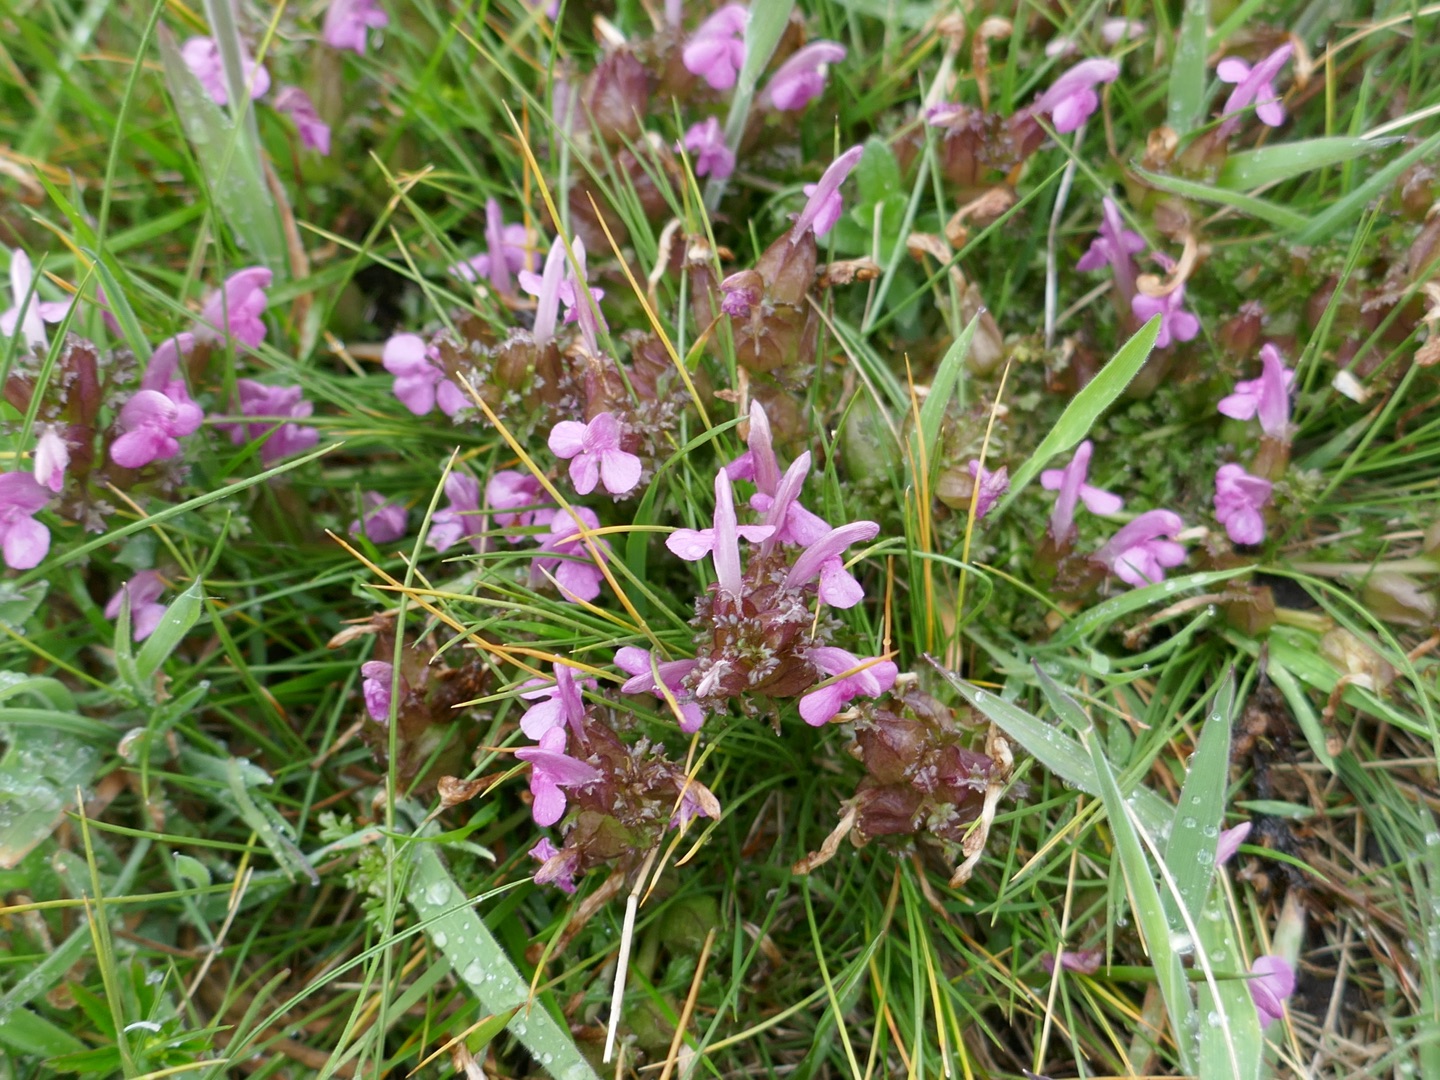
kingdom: Plantae
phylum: Tracheophyta
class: Magnoliopsida
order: Lamiales
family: Orobanchaceae
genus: Pedicularis
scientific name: Pedicularis sylvatica
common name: Mose-troldurt
